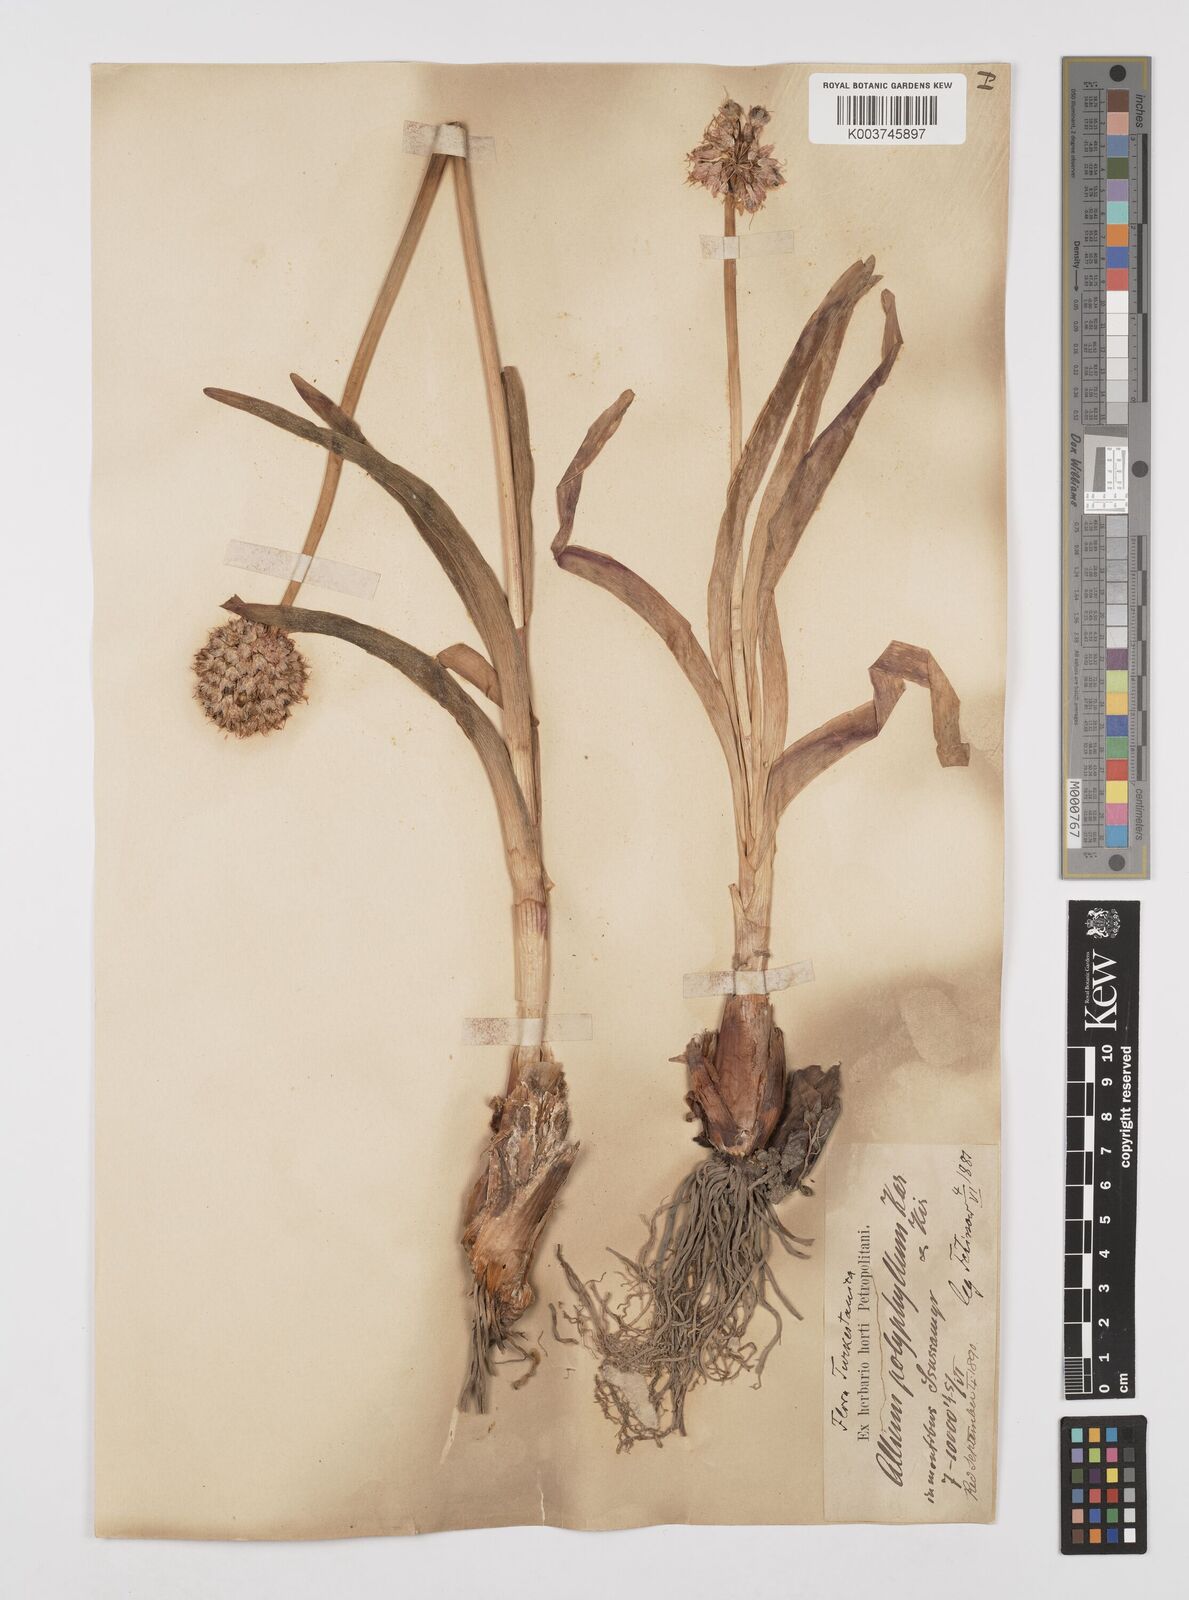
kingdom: Plantae
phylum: Tracheophyta
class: Liliopsida
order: Asparagales
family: Amaryllidaceae
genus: Allium
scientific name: Allium carolinianum
